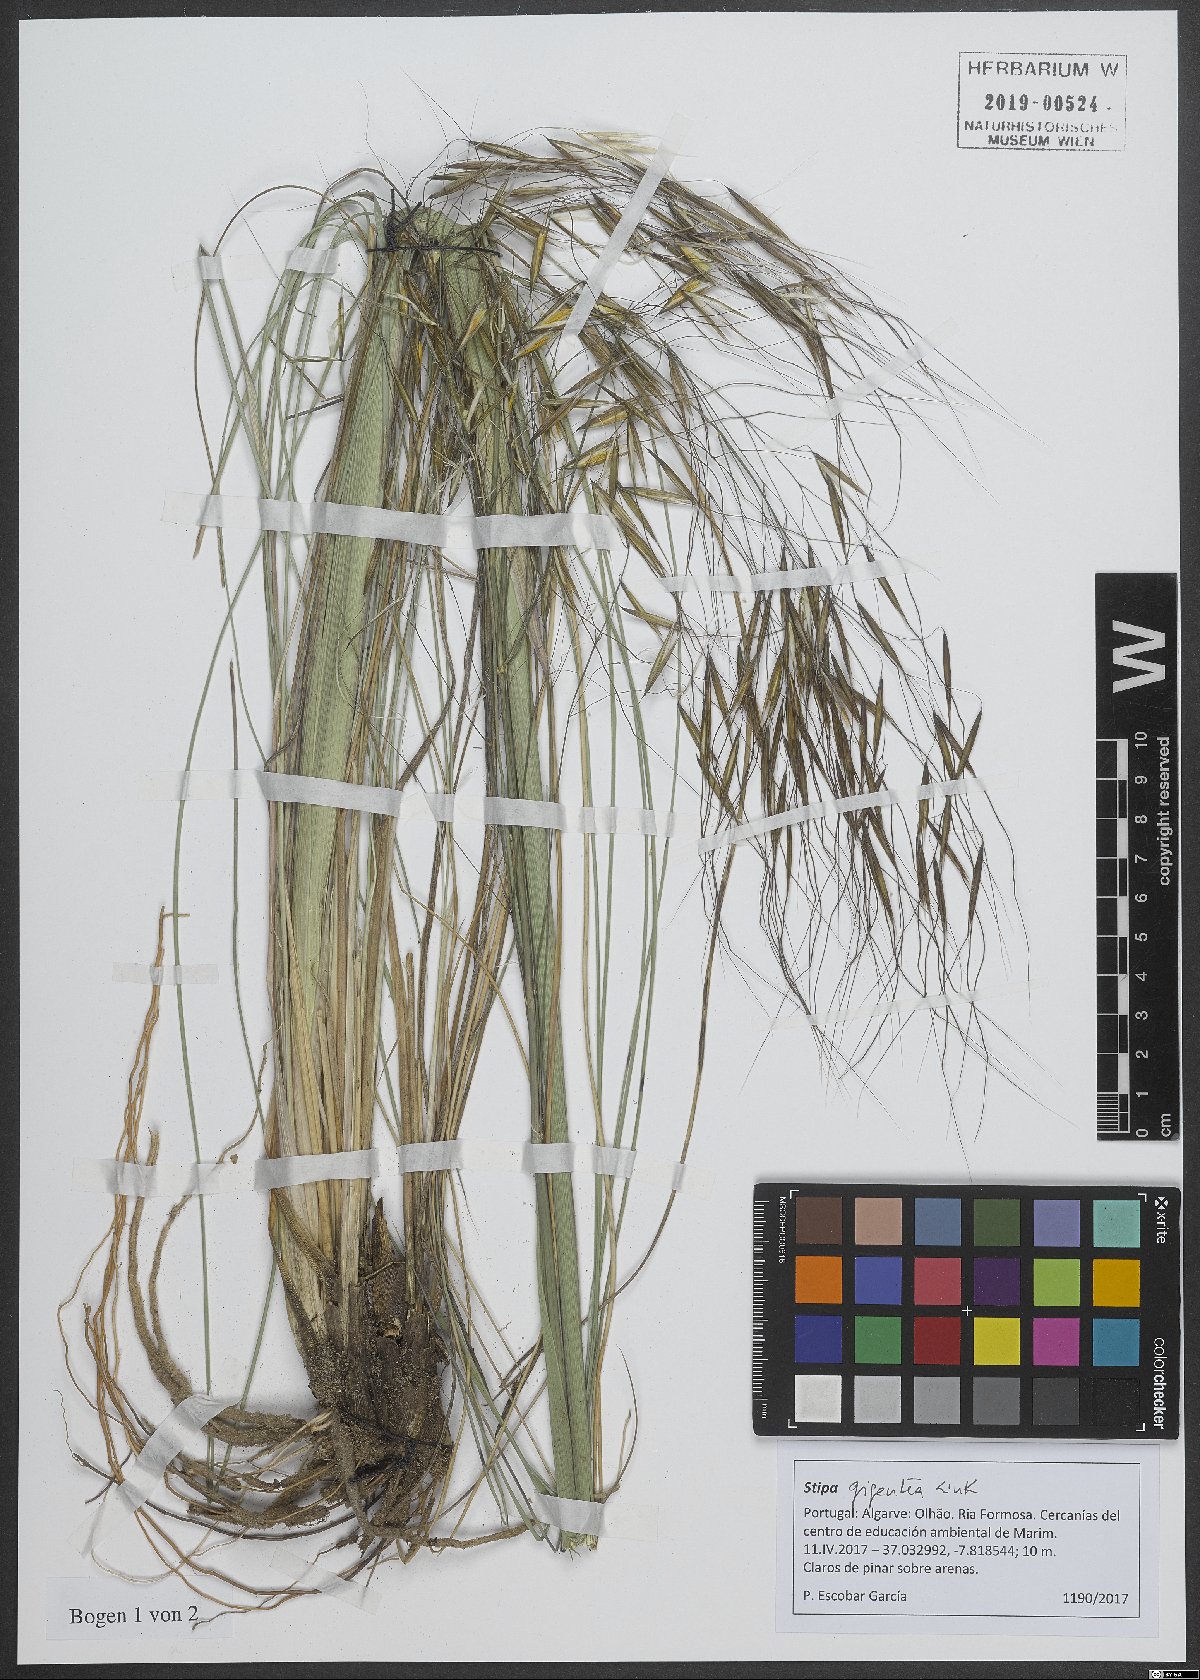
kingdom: Plantae
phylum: Tracheophyta
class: Liliopsida
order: Poales
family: Poaceae
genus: Celtica
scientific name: Celtica gigantea
